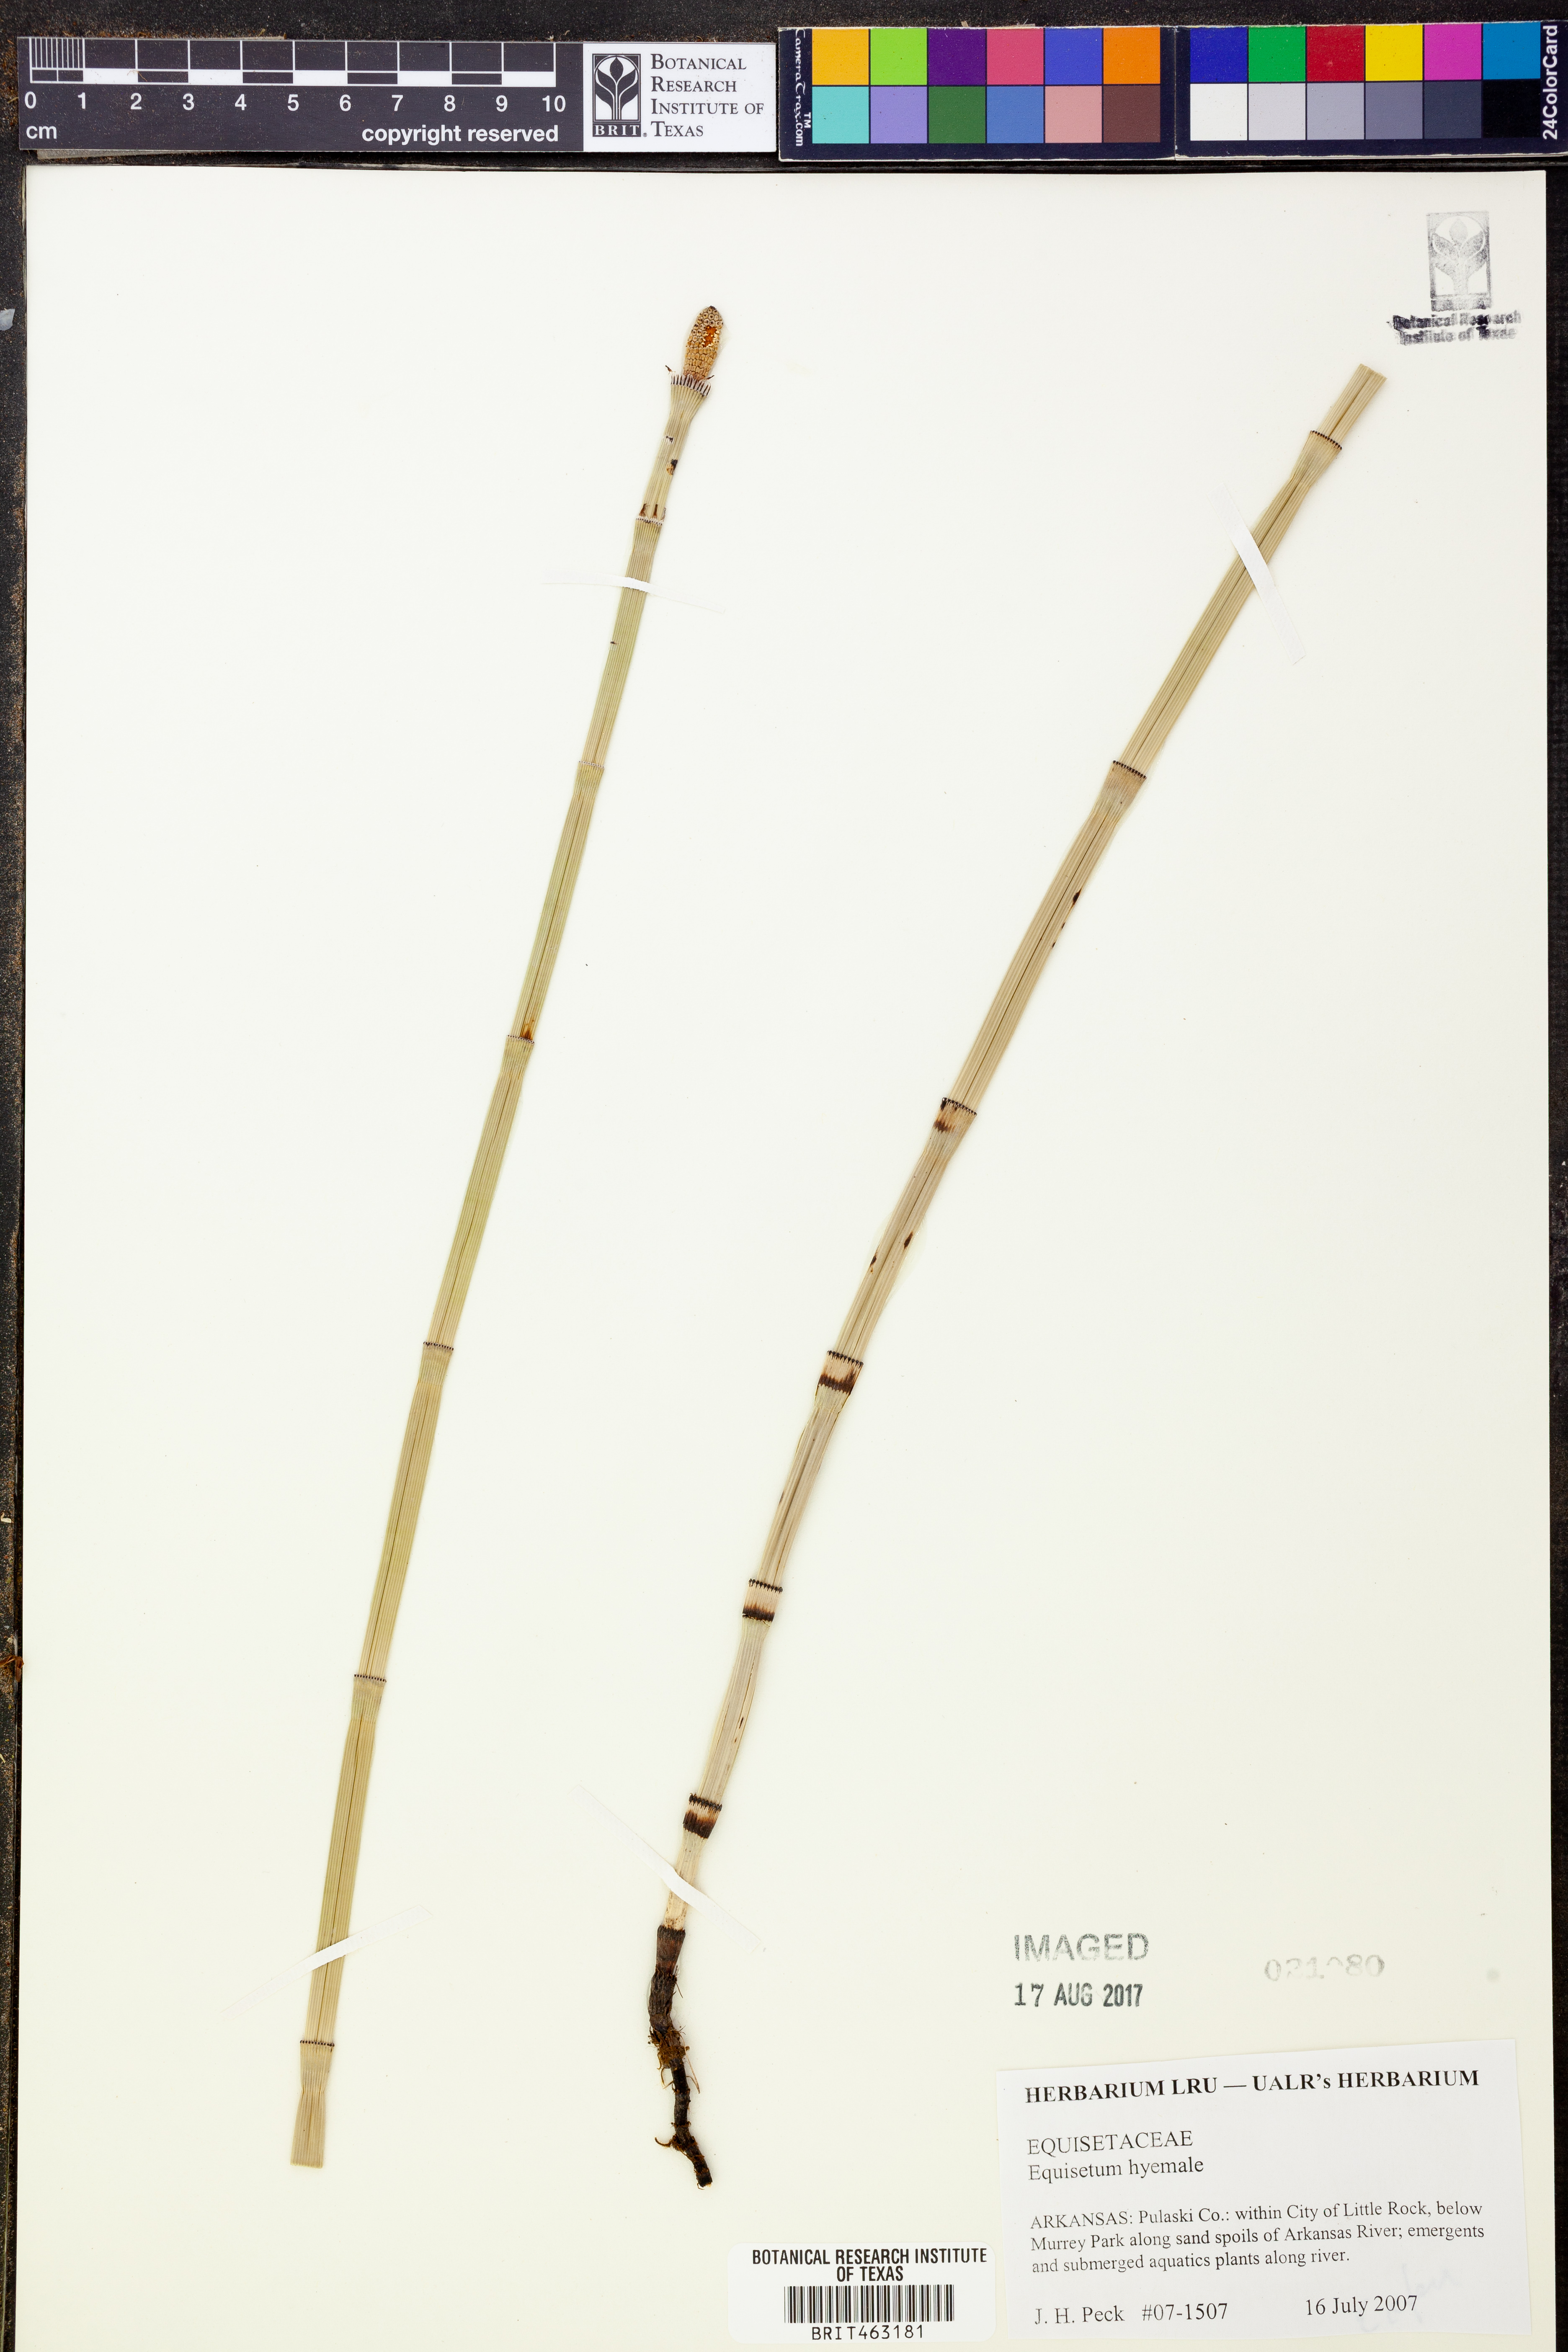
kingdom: Plantae
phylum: Tracheophyta
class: Polypodiopsida
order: Equisetales
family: Equisetaceae
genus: Equisetum
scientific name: Equisetum hyemale
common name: Rough horsetail
